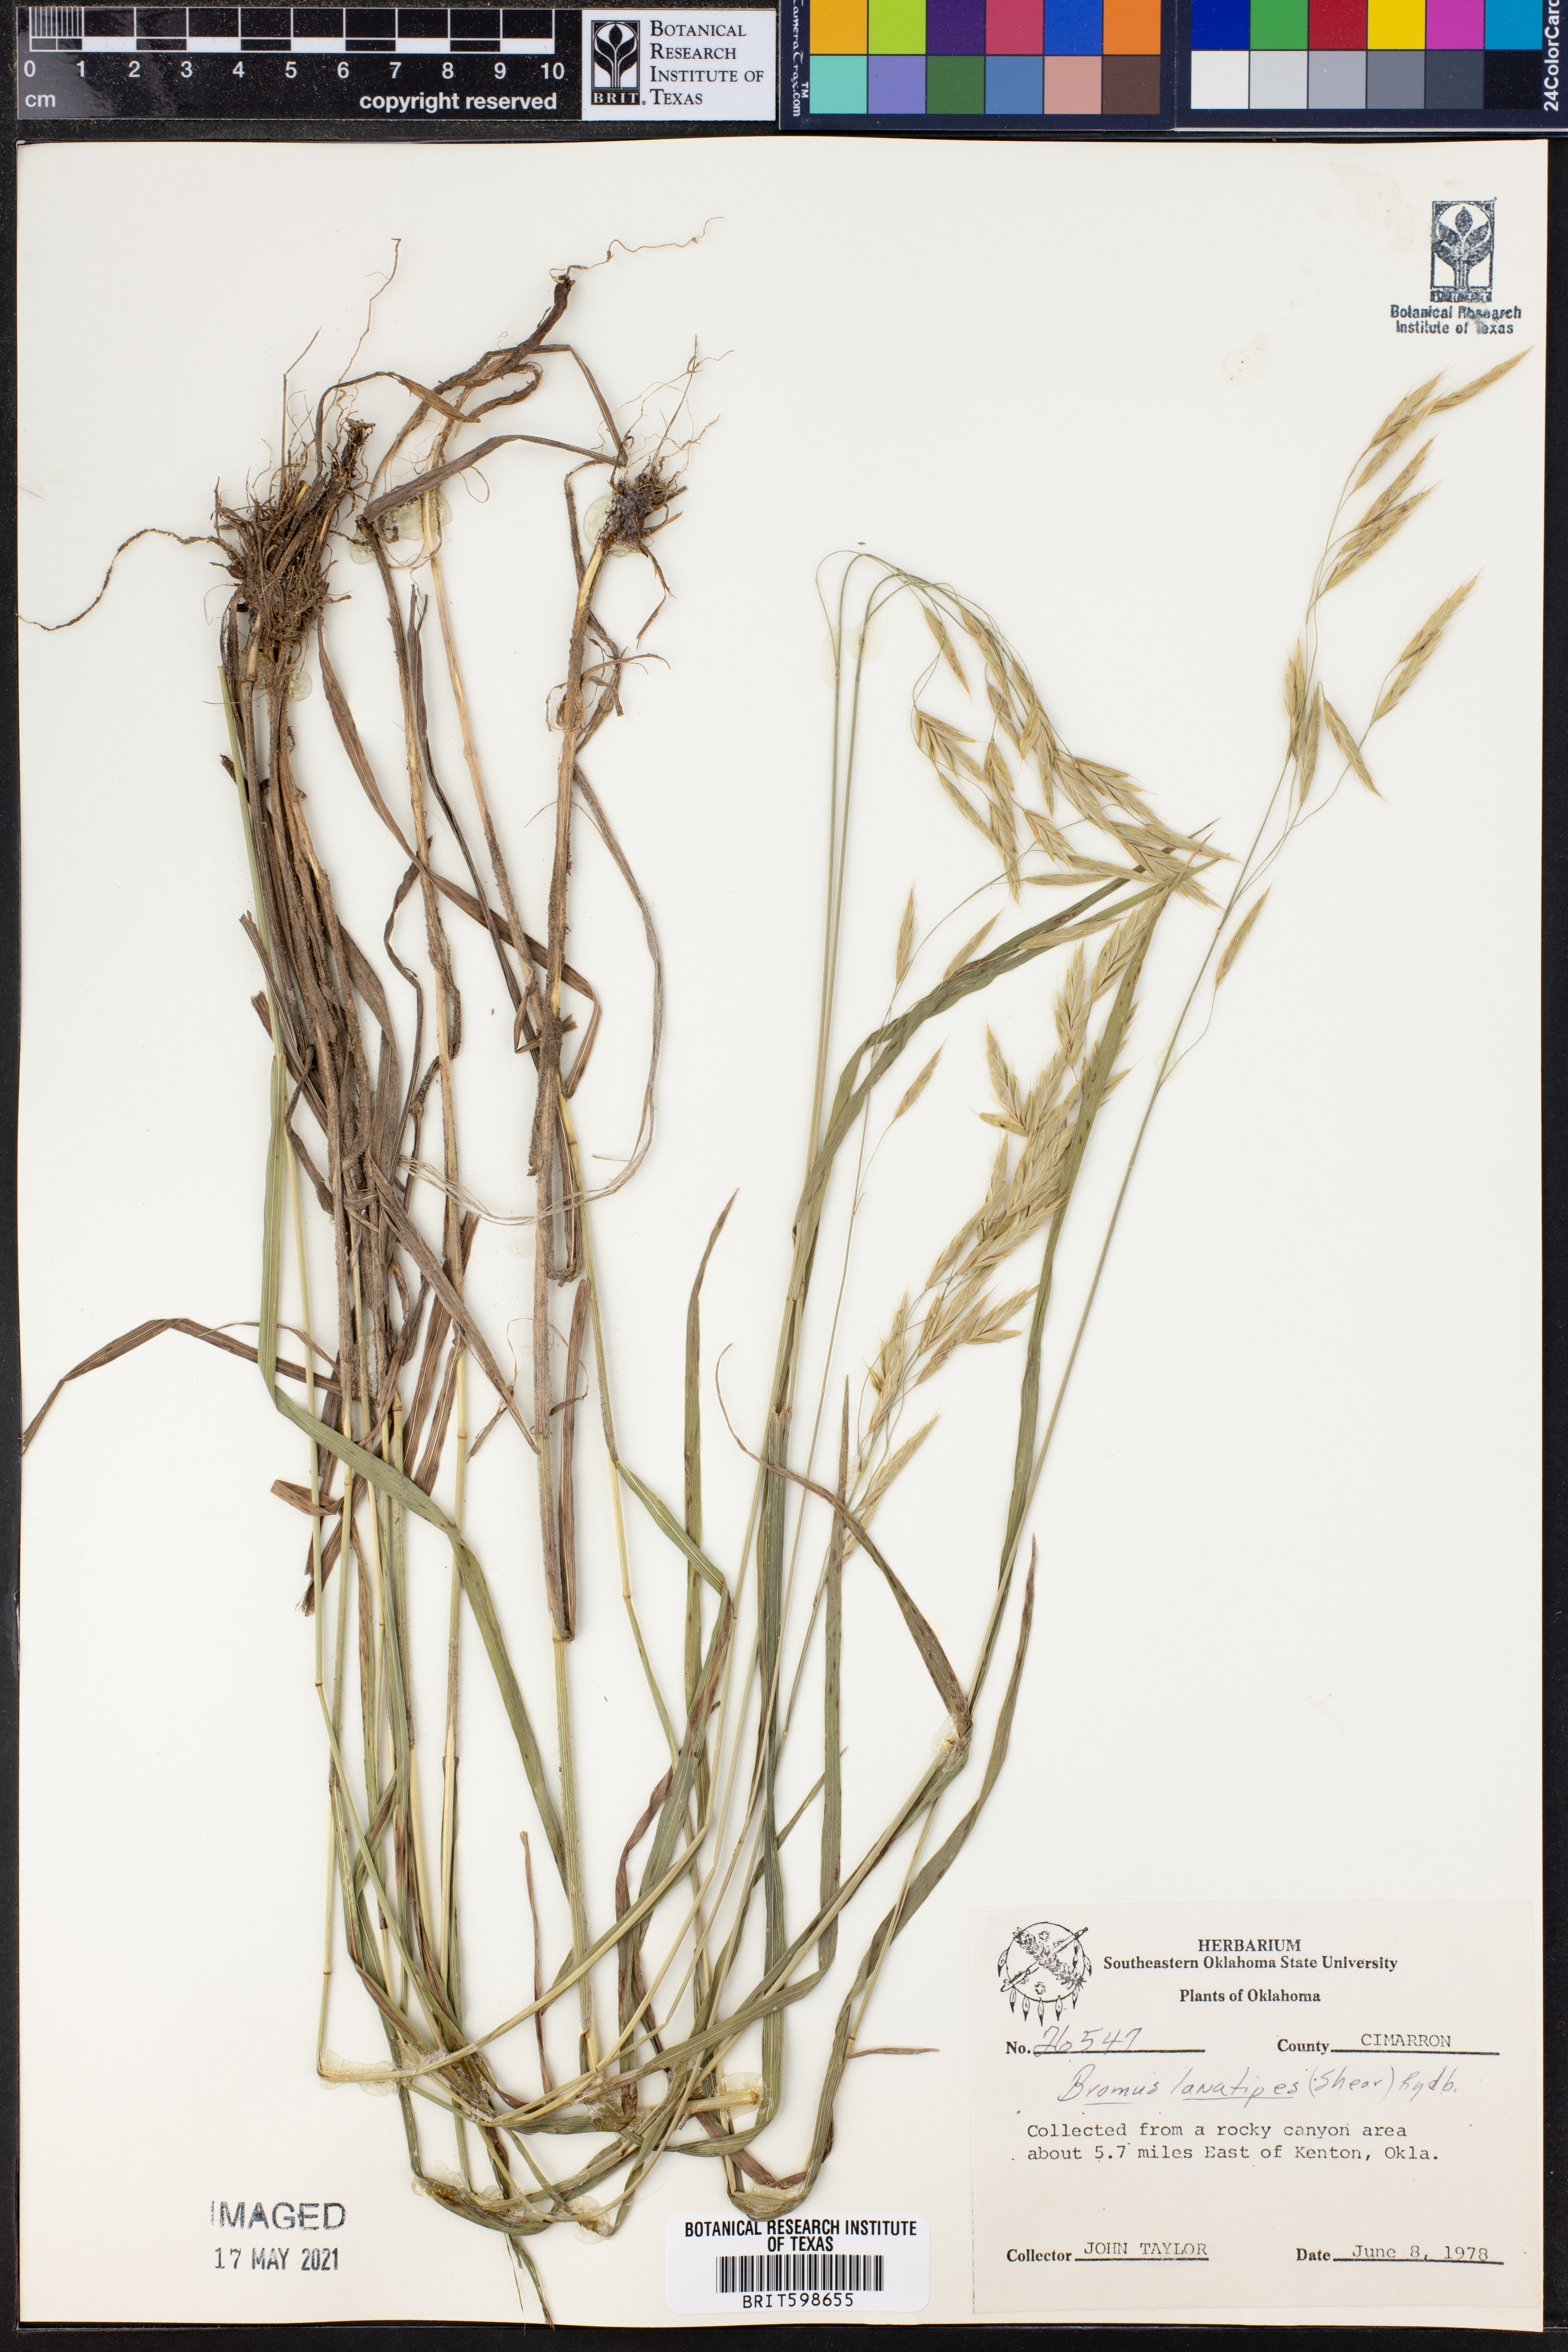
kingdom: Plantae
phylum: Tracheophyta
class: Liliopsida
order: Poales
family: Poaceae
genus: Bromus
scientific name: Bromus lanatipes
